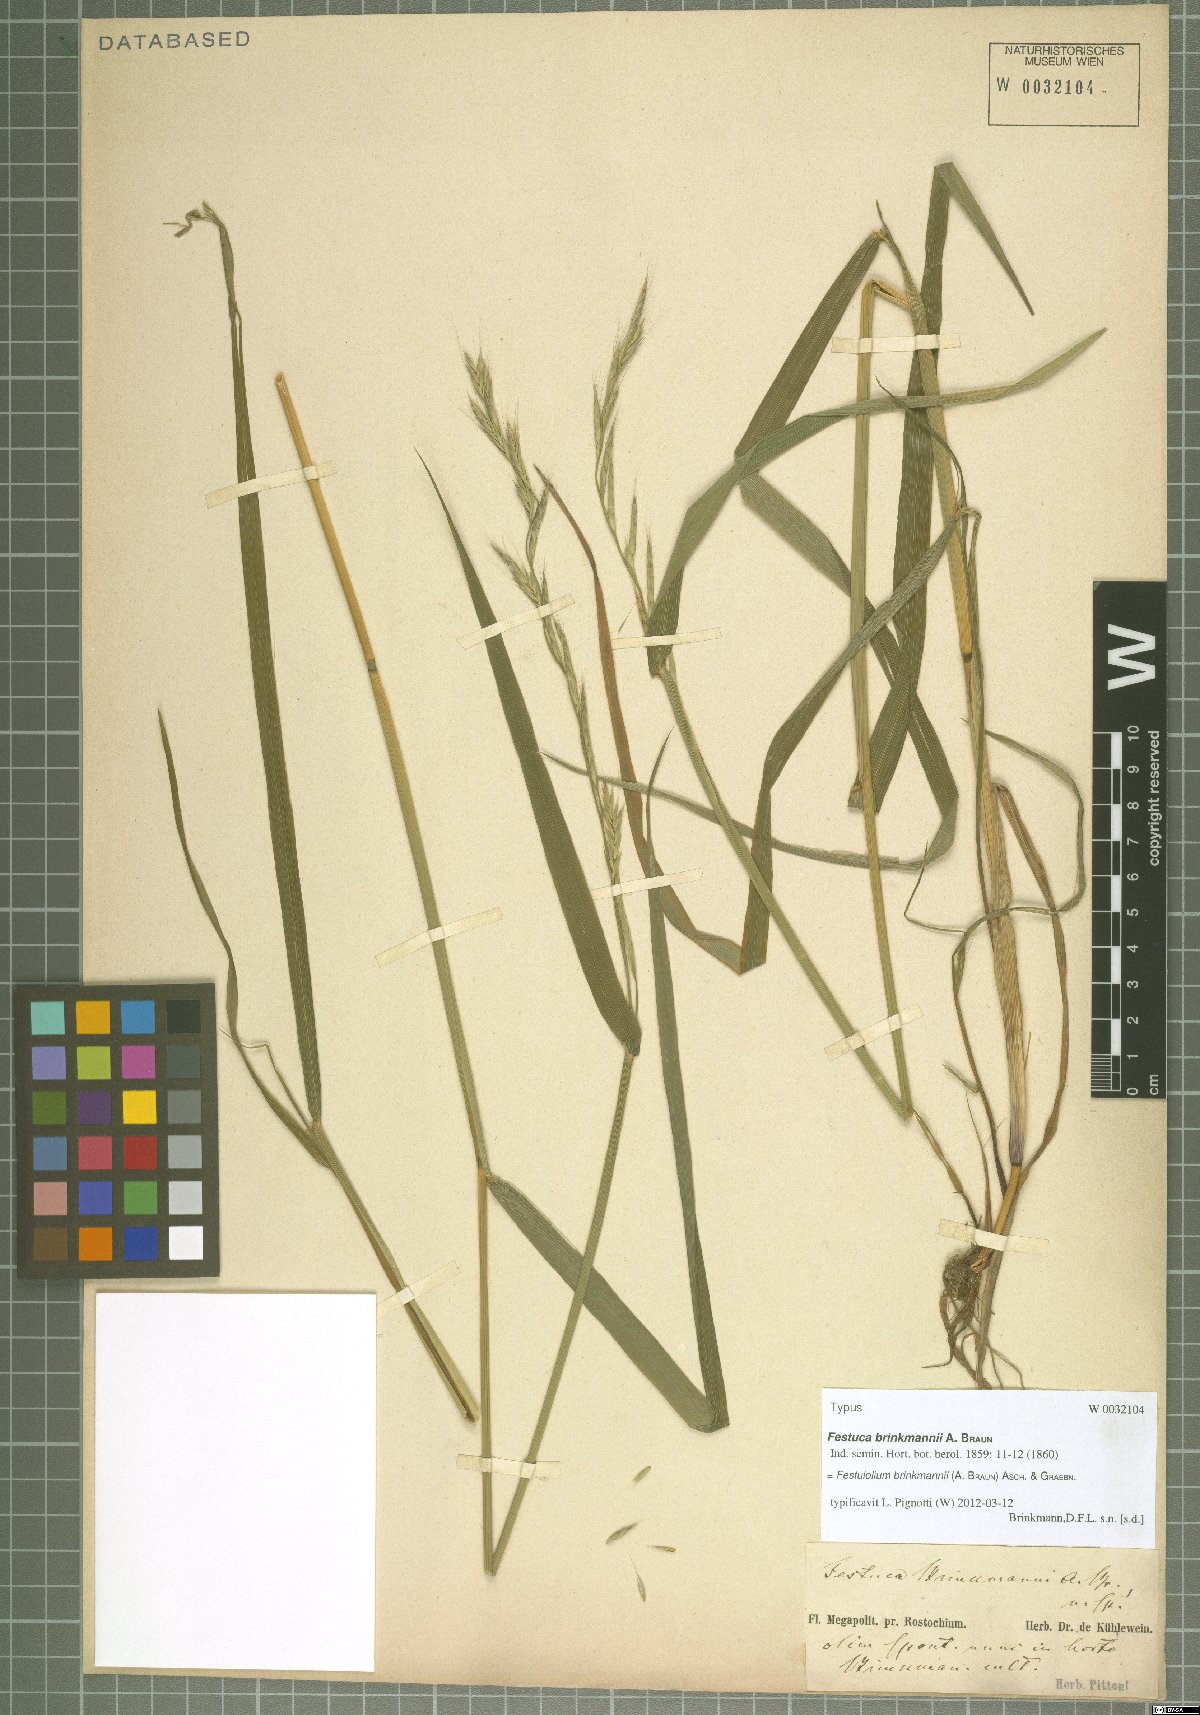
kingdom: Plantae
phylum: Tracheophyta
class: Liliopsida
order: Poales
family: Poaceae
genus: Lolium
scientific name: Lolium brinkmannii
